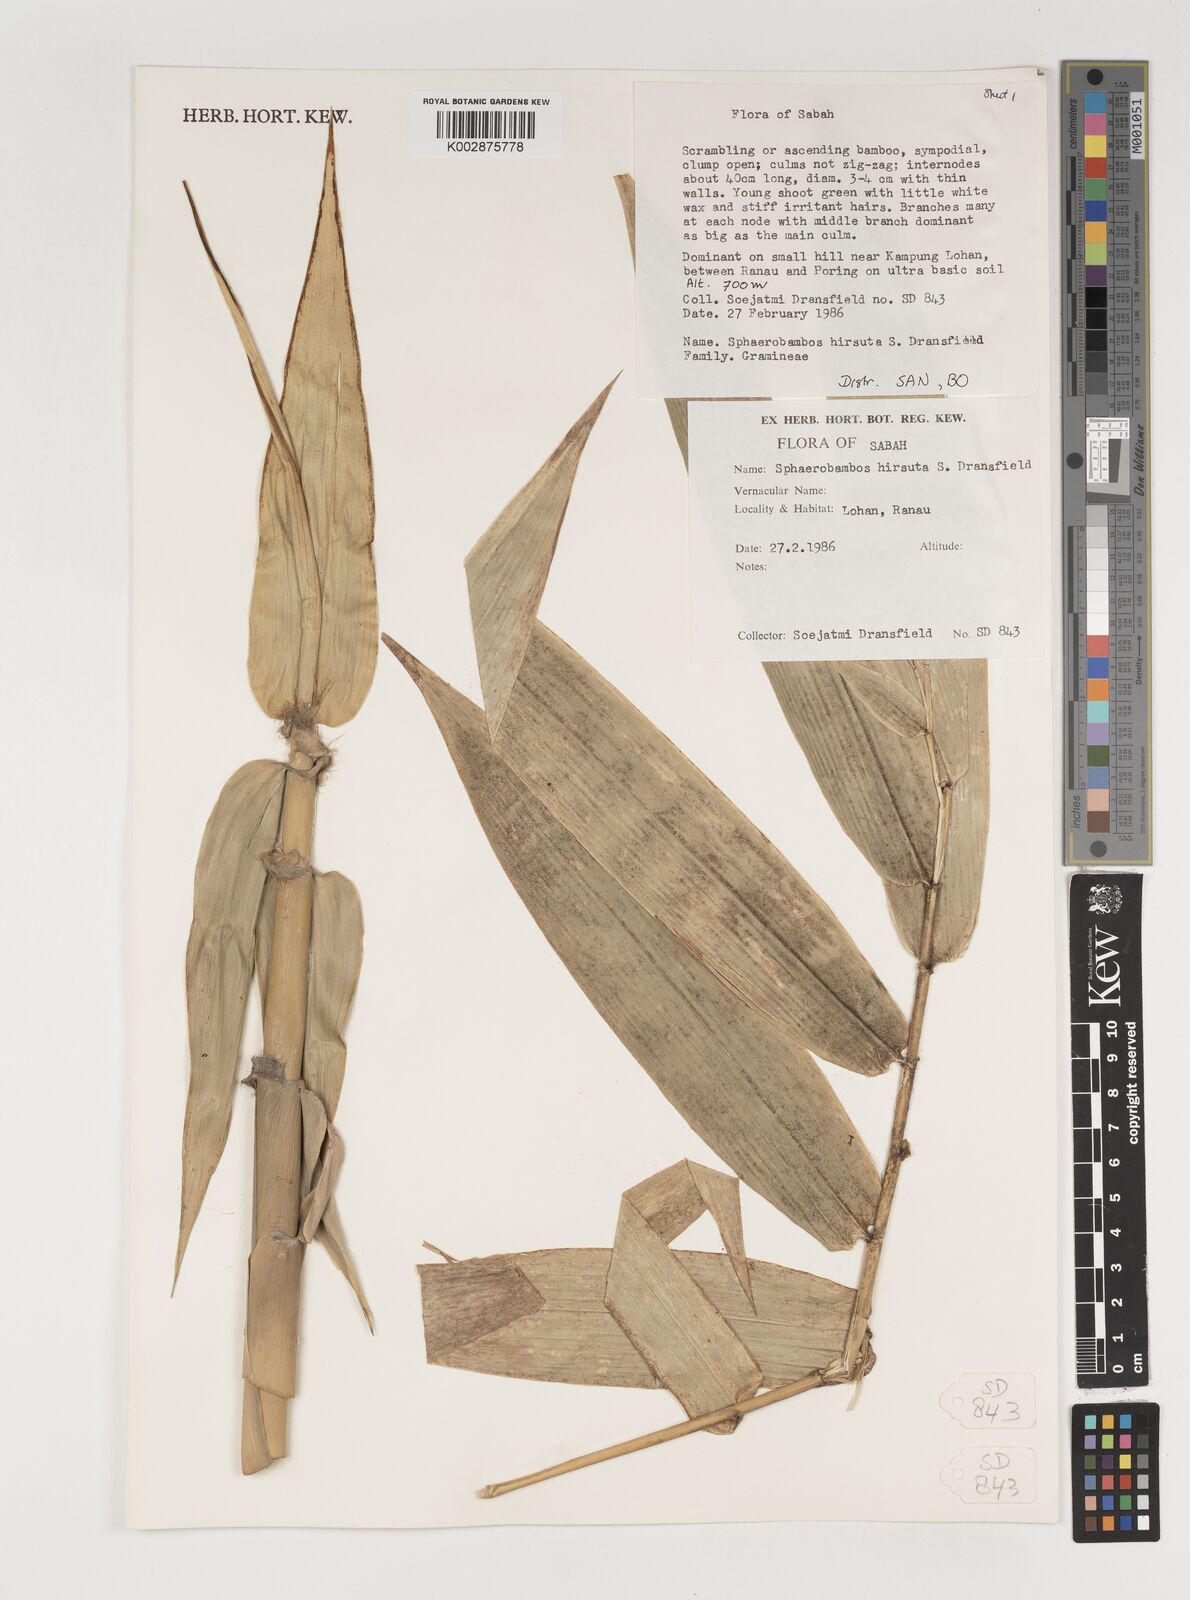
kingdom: Plantae
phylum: Tracheophyta
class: Liliopsida
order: Poales
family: Poaceae
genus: Sphaerobambos
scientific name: Sphaerobambos hirsuta
